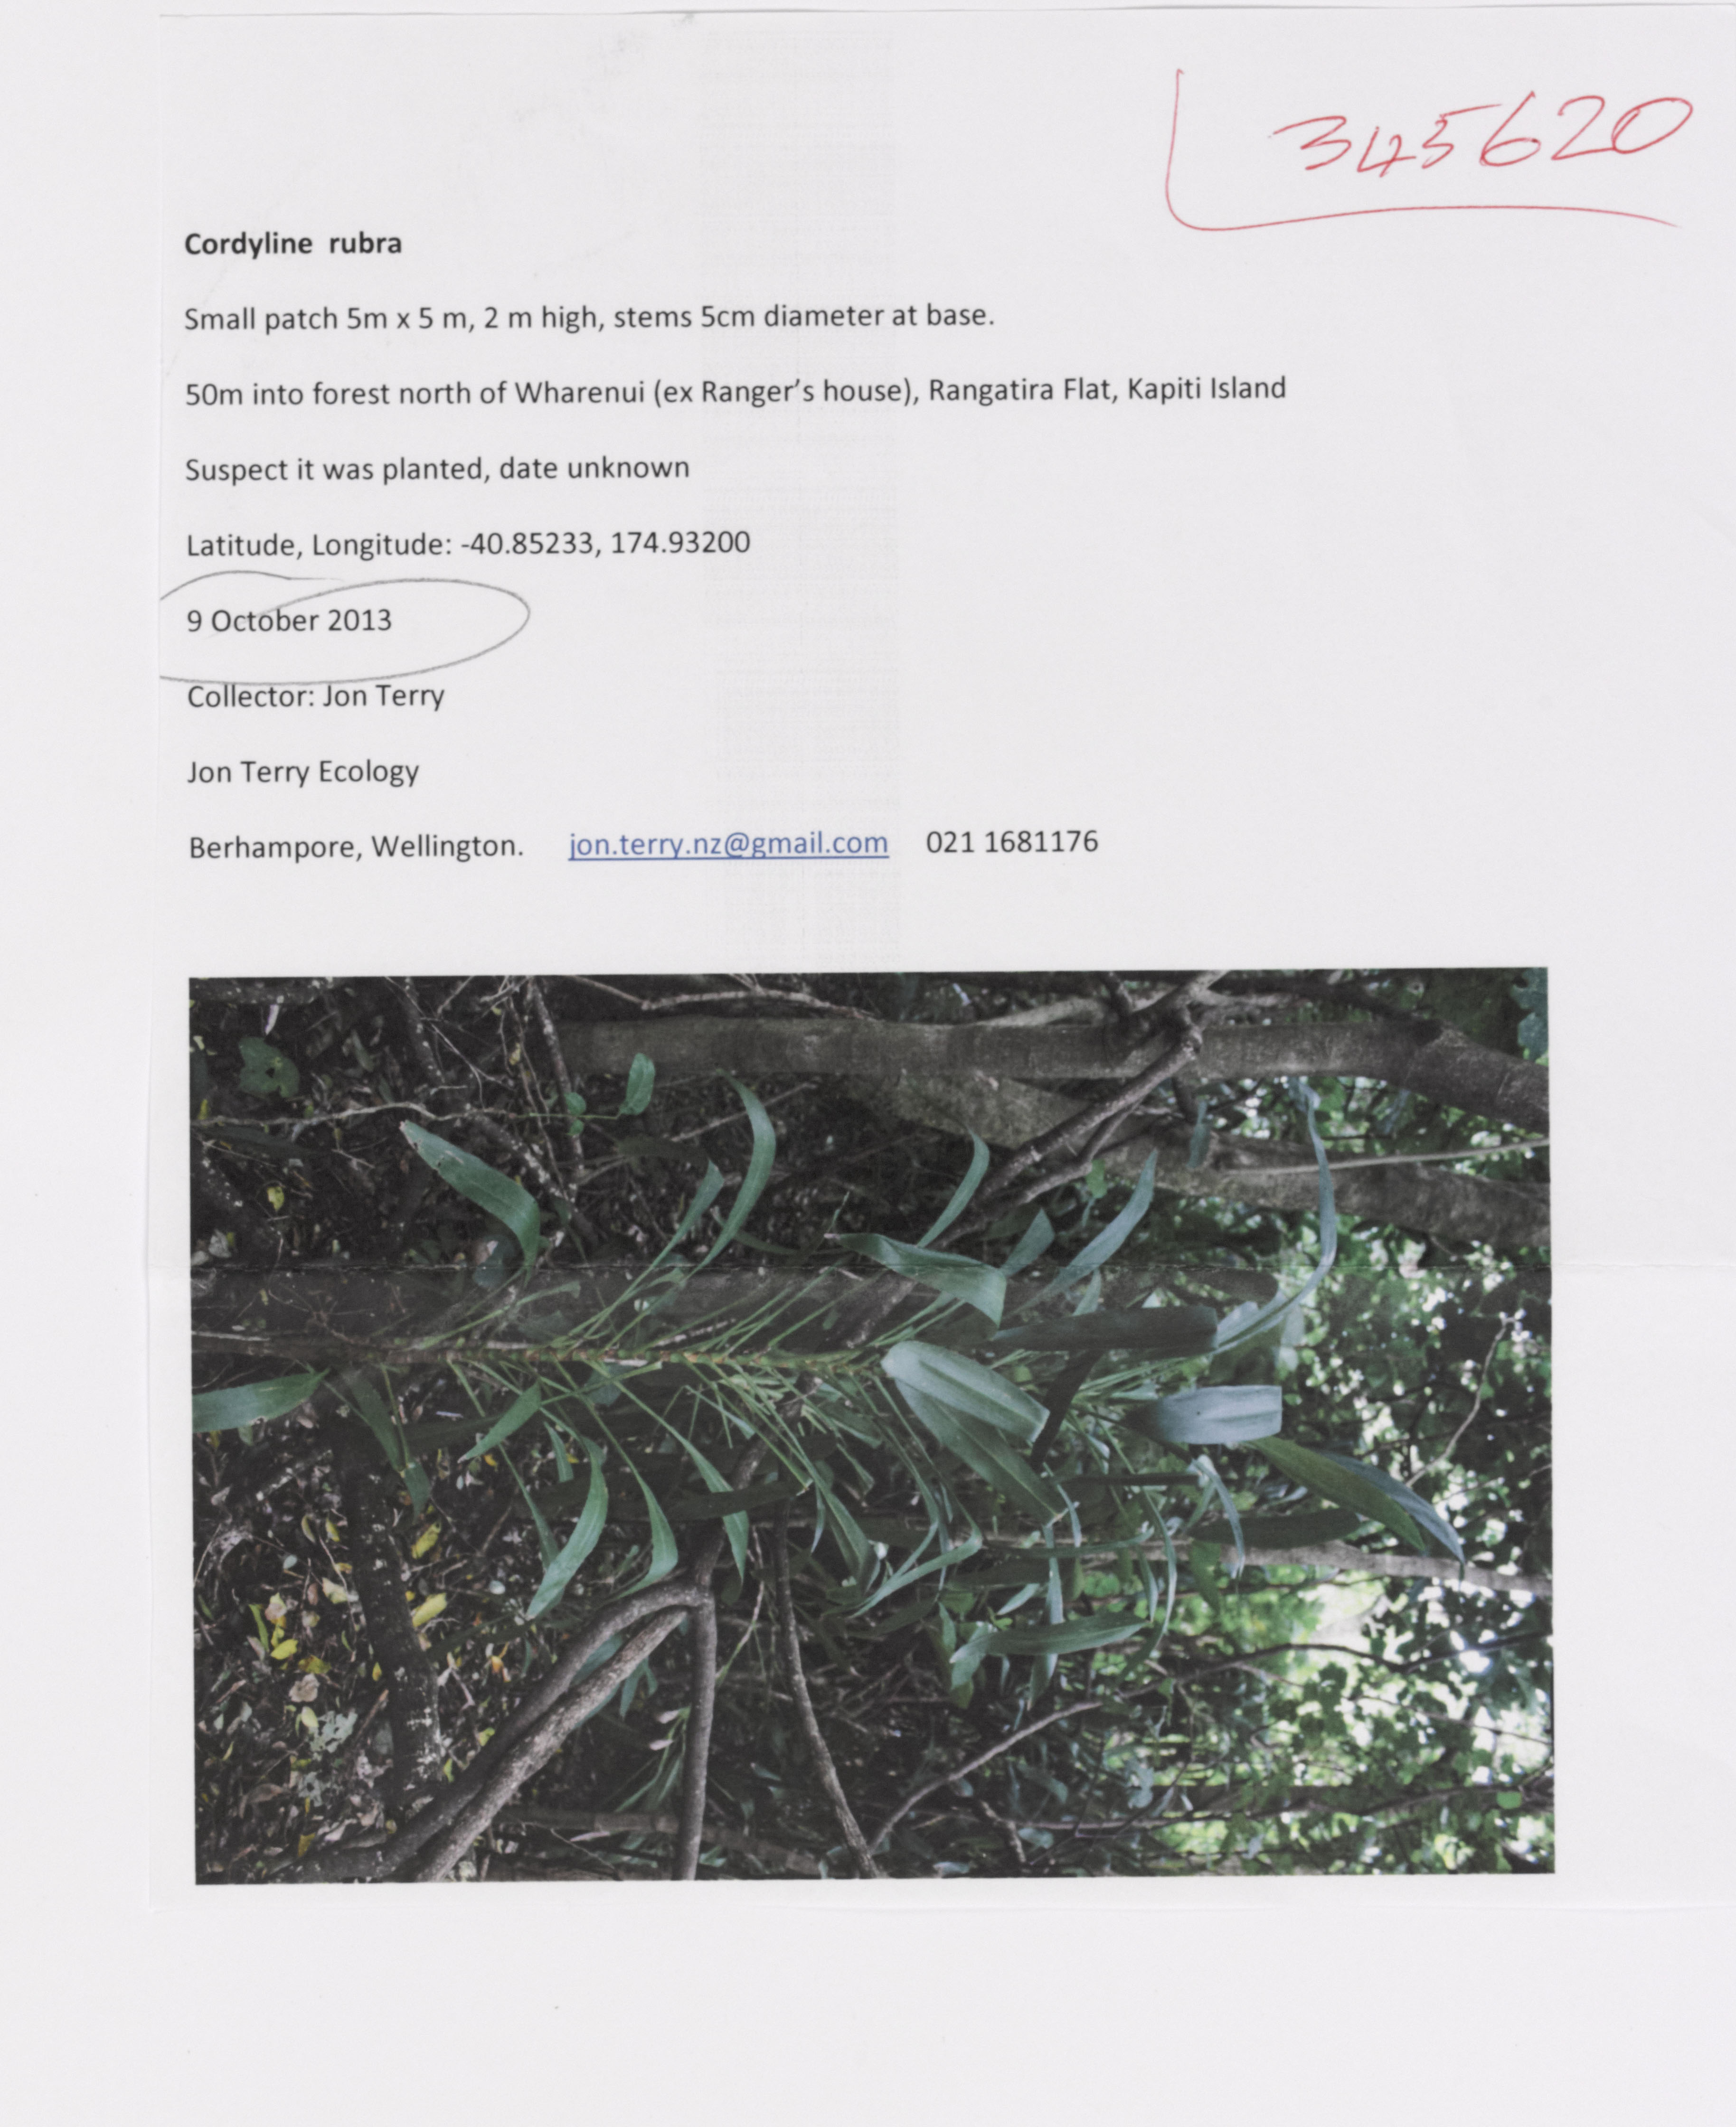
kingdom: Plantae
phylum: Tracheophyta
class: Liliopsida
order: Asparagales
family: Asparagaceae
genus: Cordyline
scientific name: Cordyline rubra
